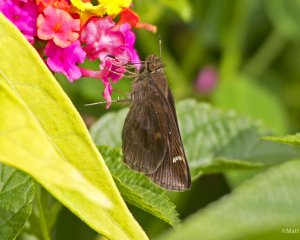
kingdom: Animalia
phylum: Arthropoda
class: Insecta
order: Lepidoptera
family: Hesperiidae
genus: Lerema
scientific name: Lerema accius
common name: Clouded Skipper
